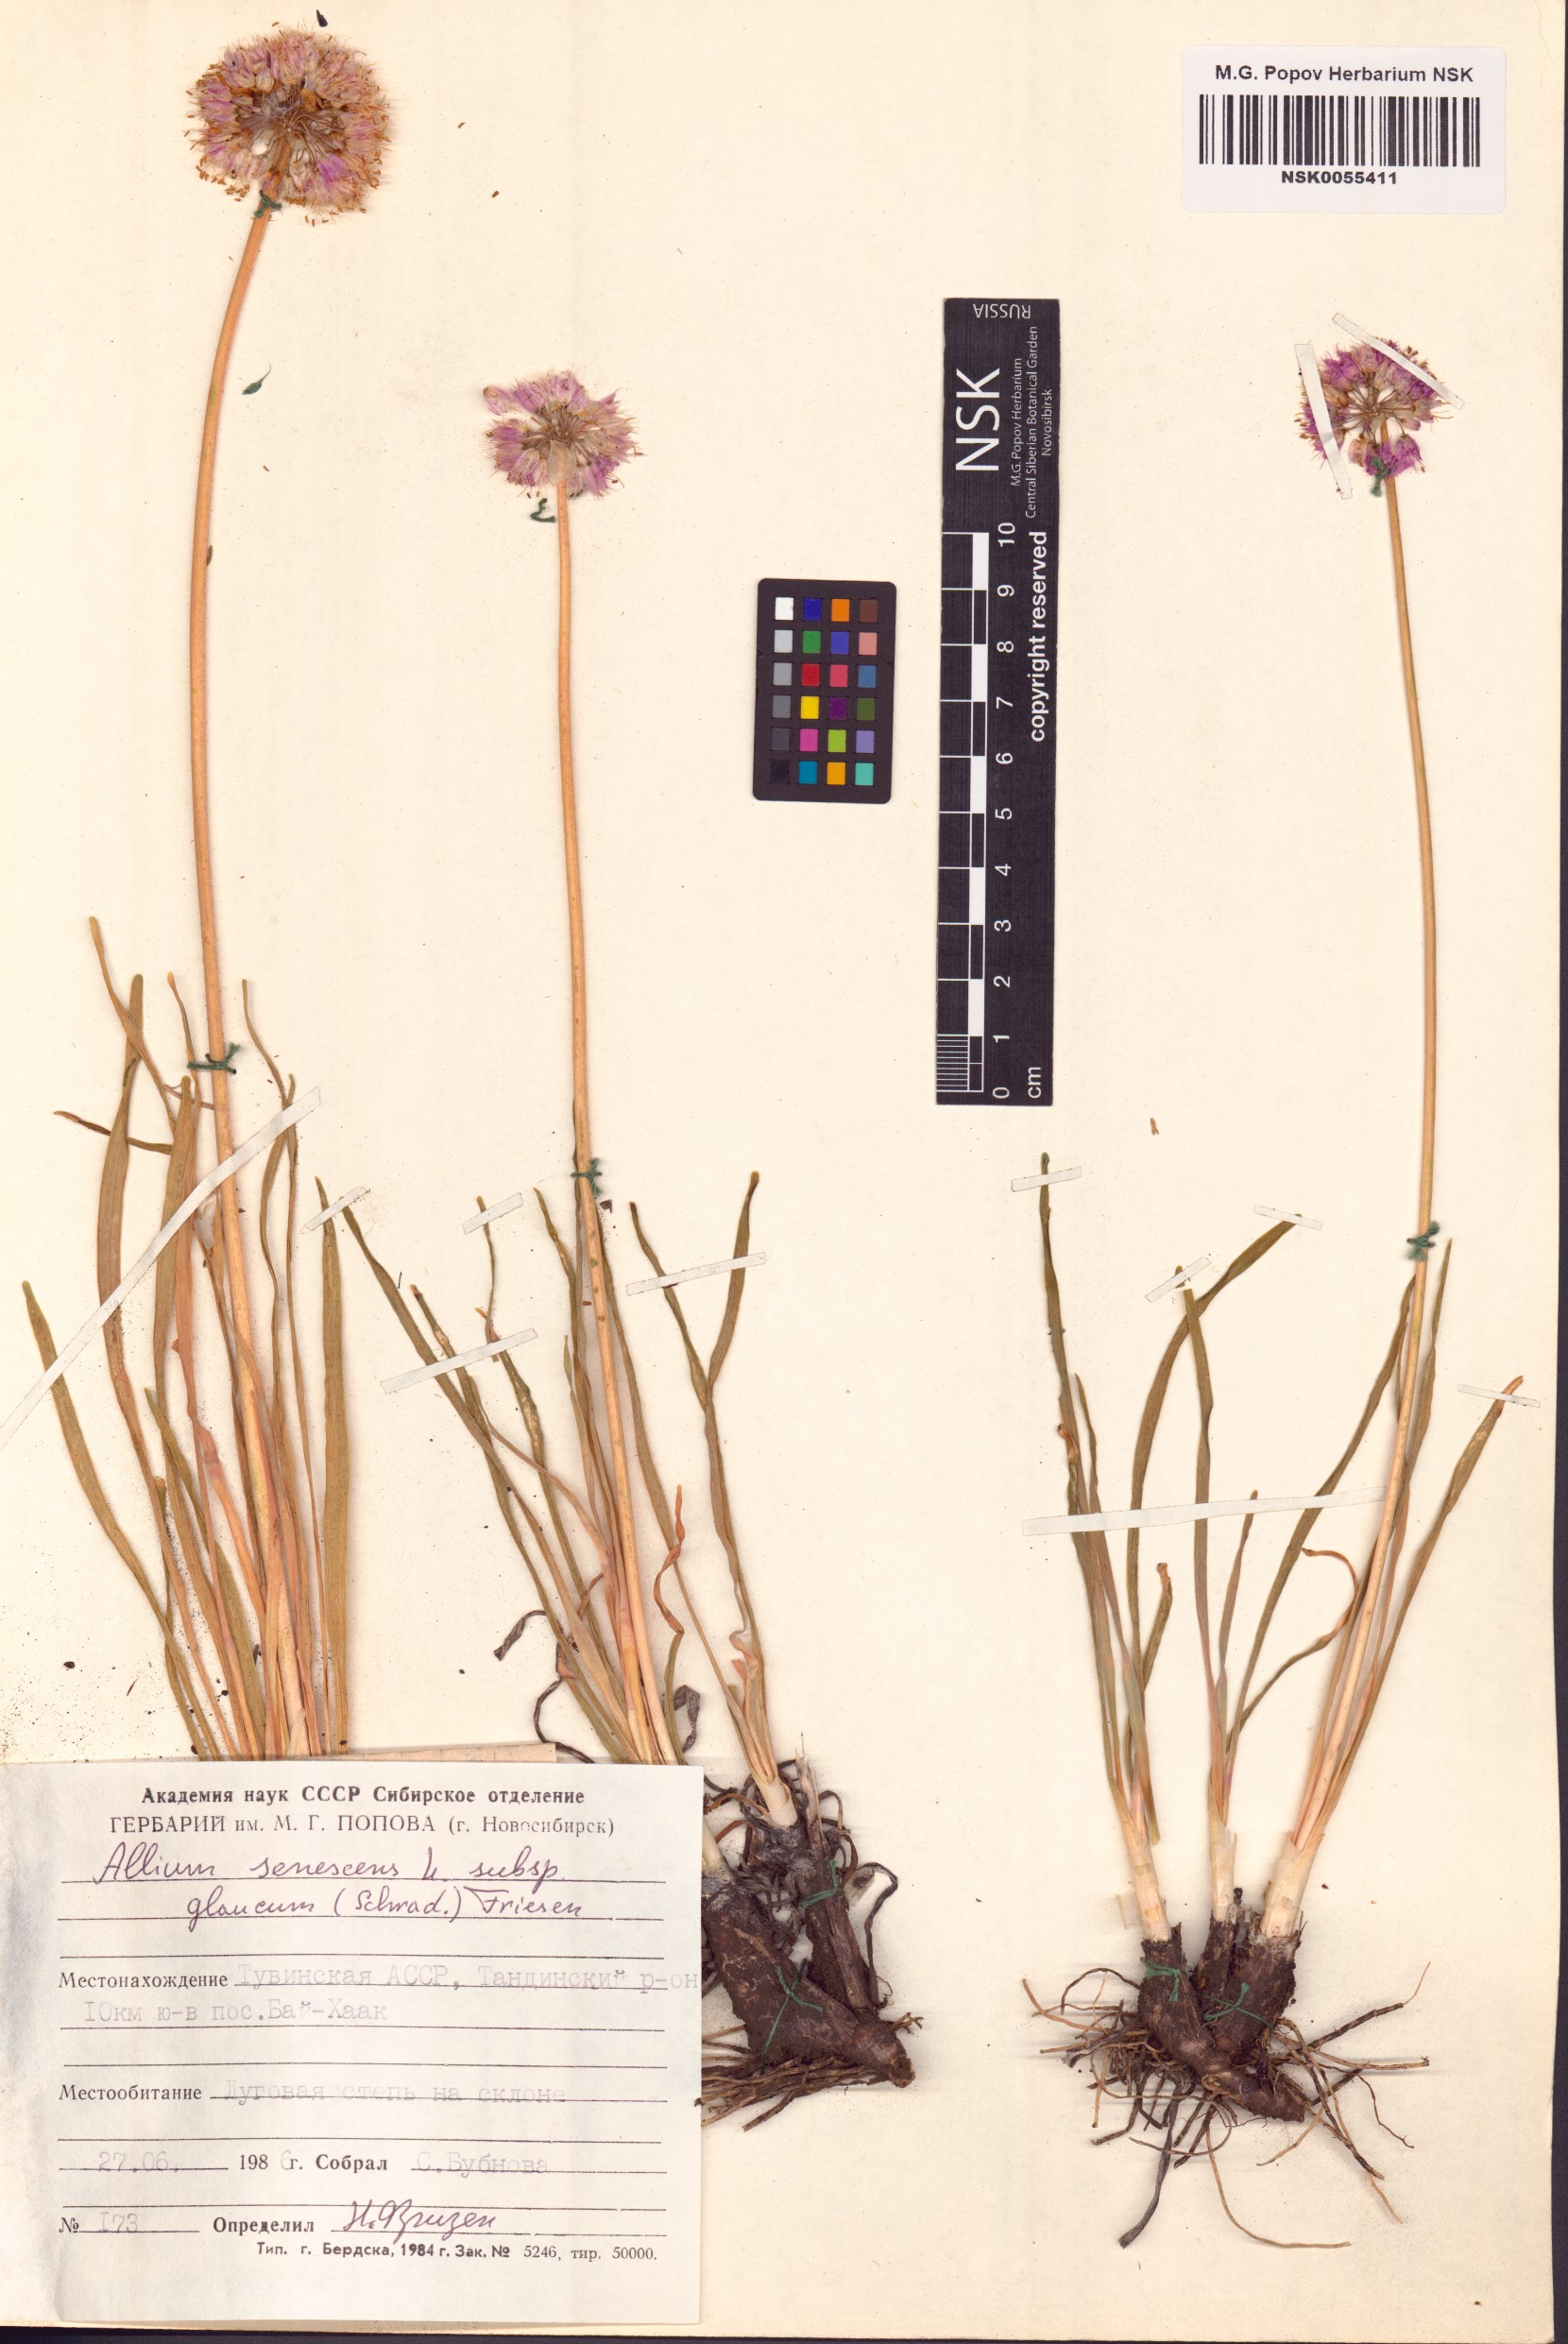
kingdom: Plantae
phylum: Tracheophyta
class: Liliopsida
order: Asparagales
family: Amaryllidaceae
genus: Allium
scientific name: Allium senescens
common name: German garlic
